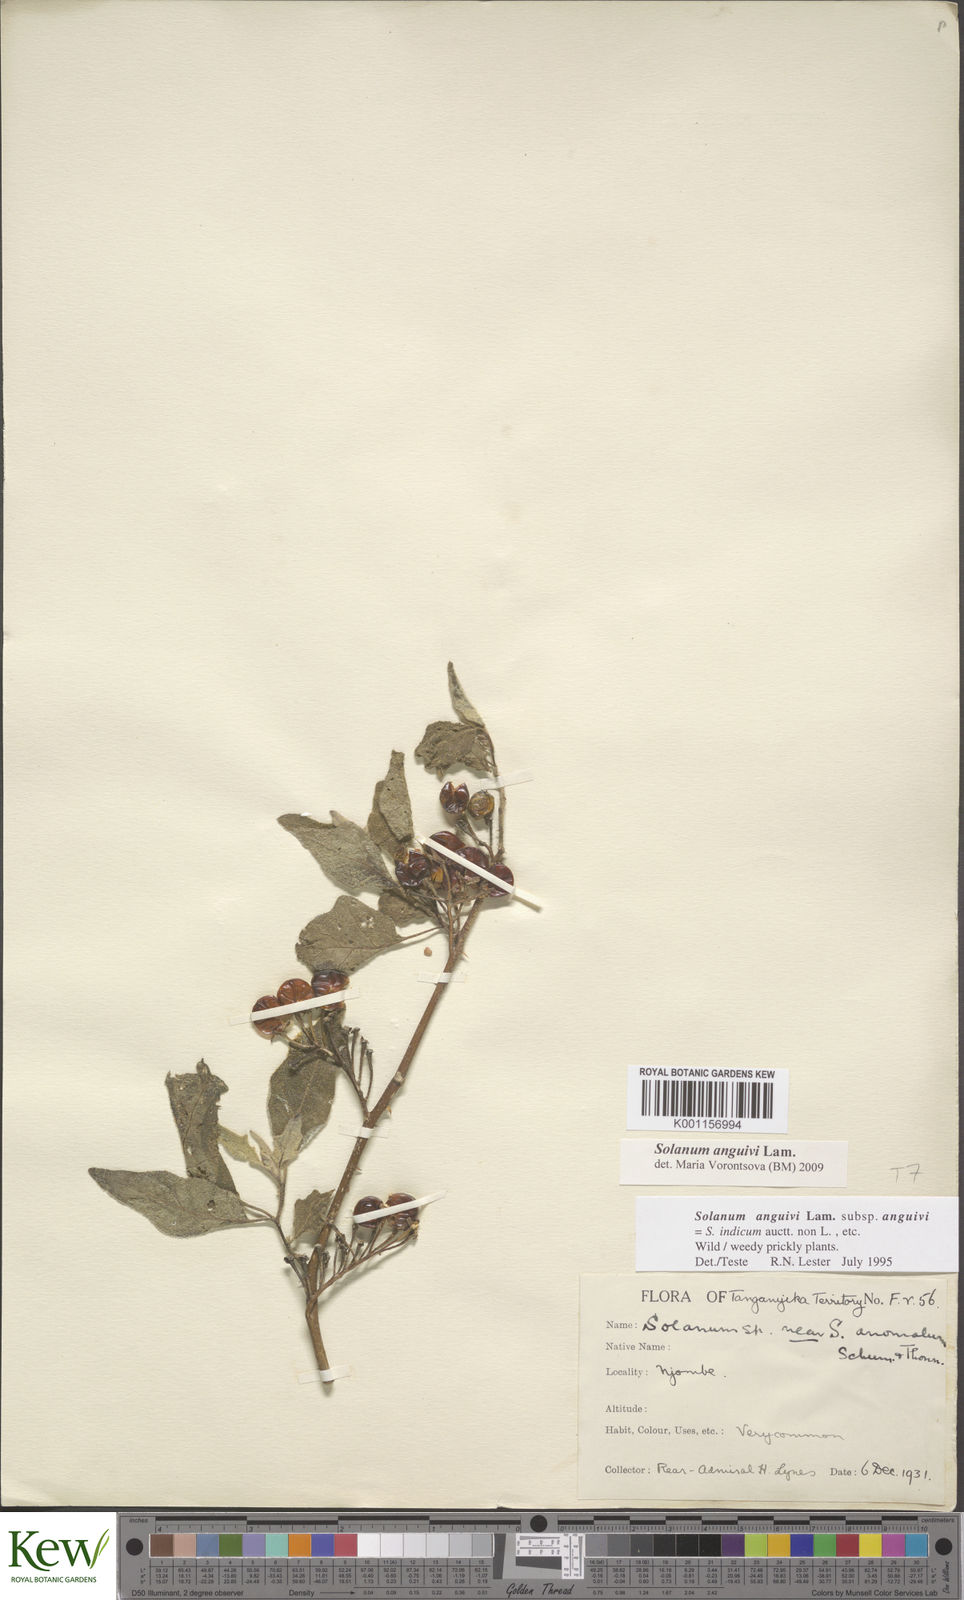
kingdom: Plantae
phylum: Tracheophyta
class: Magnoliopsida
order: Solanales
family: Solanaceae
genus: Solanum
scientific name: Solanum anguivi
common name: Forest bitterberry
